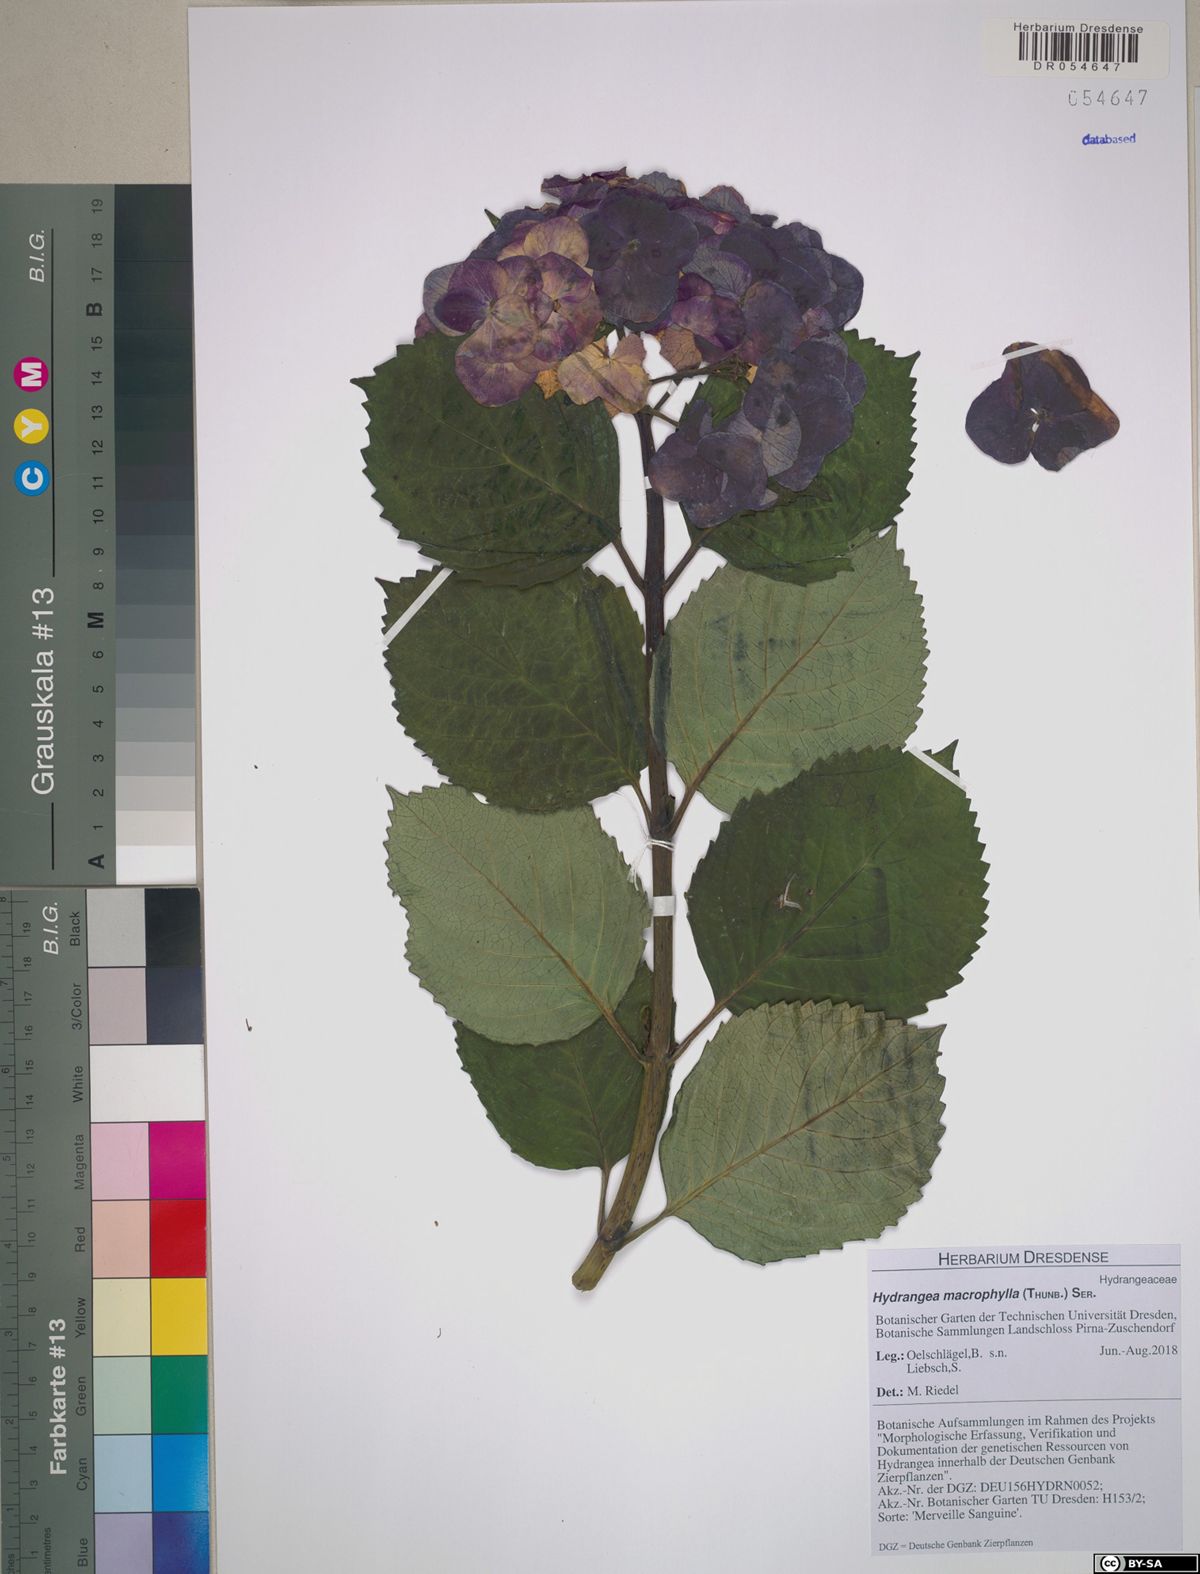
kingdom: Plantae
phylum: Tracheophyta
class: Magnoliopsida
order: Cornales
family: Hydrangeaceae
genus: Hydrangea
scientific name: Hydrangea macrophylla
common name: Hydrangea
